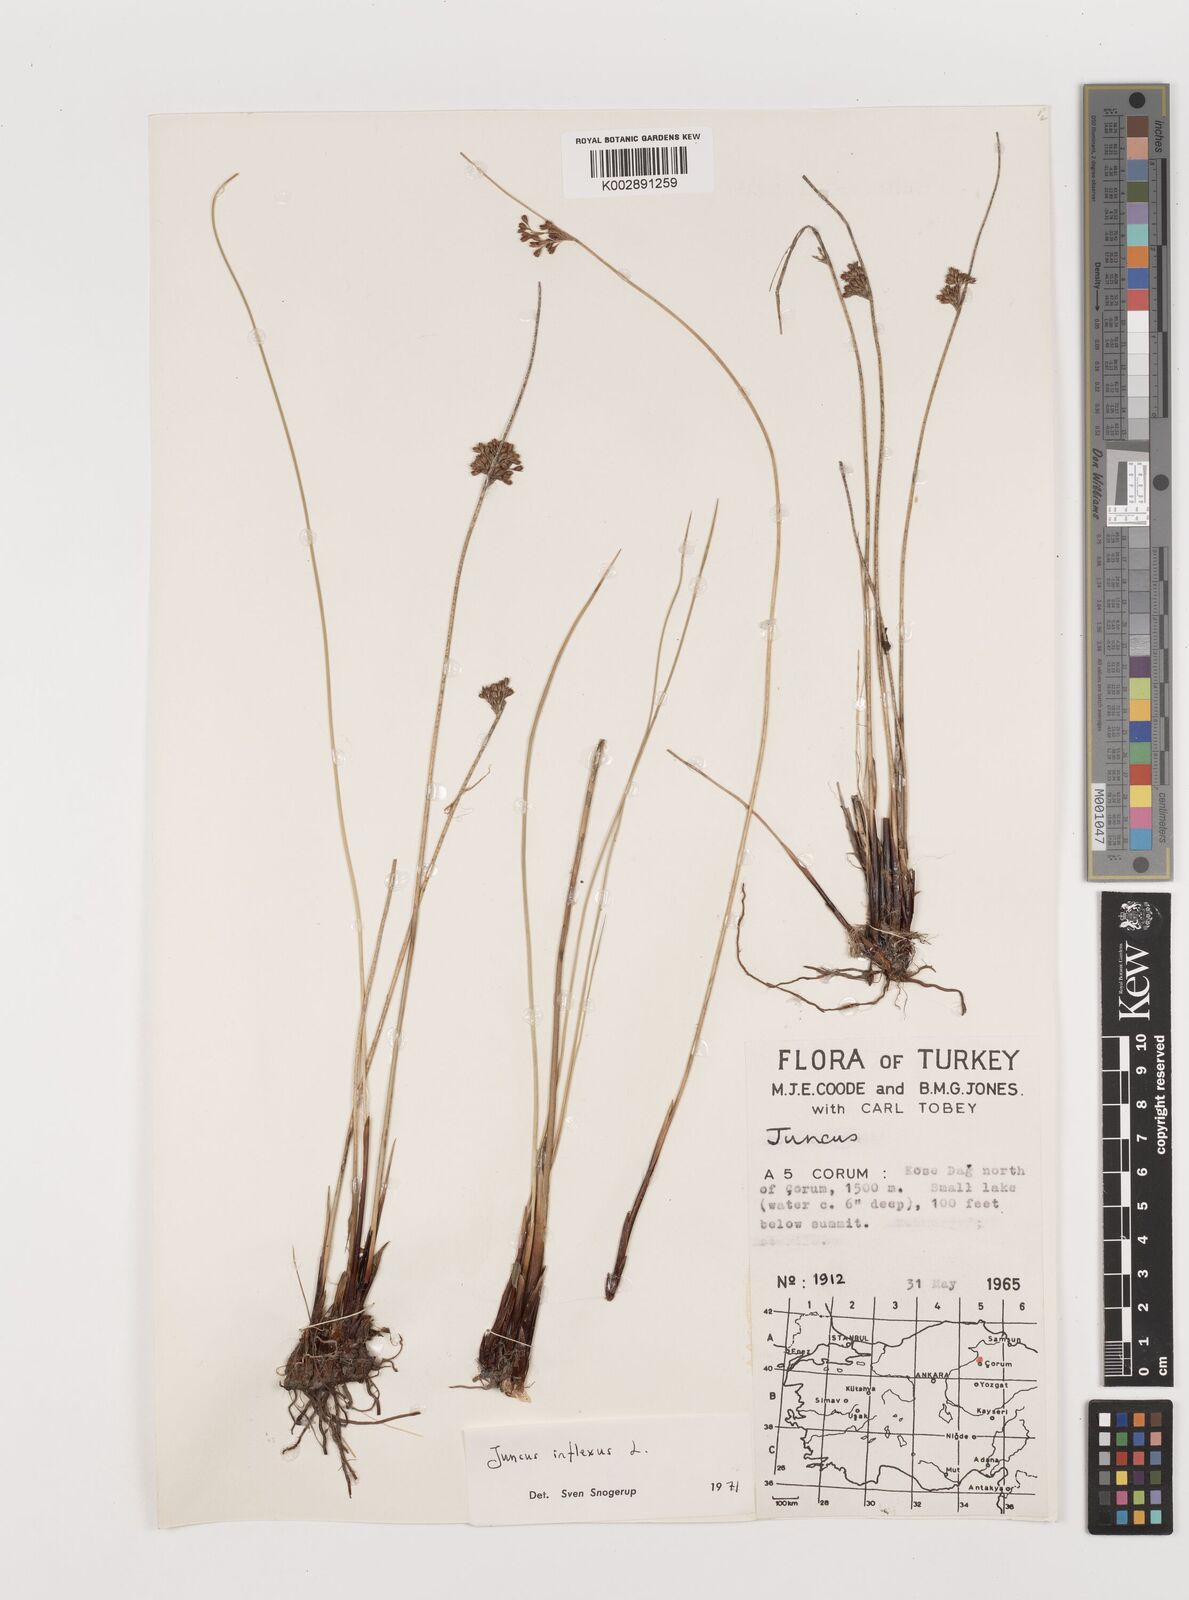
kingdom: Plantae
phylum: Tracheophyta
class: Liliopsida
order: Poales
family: Juncaceae
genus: Juncus
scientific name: Juncus inflexus
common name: Hard rush
